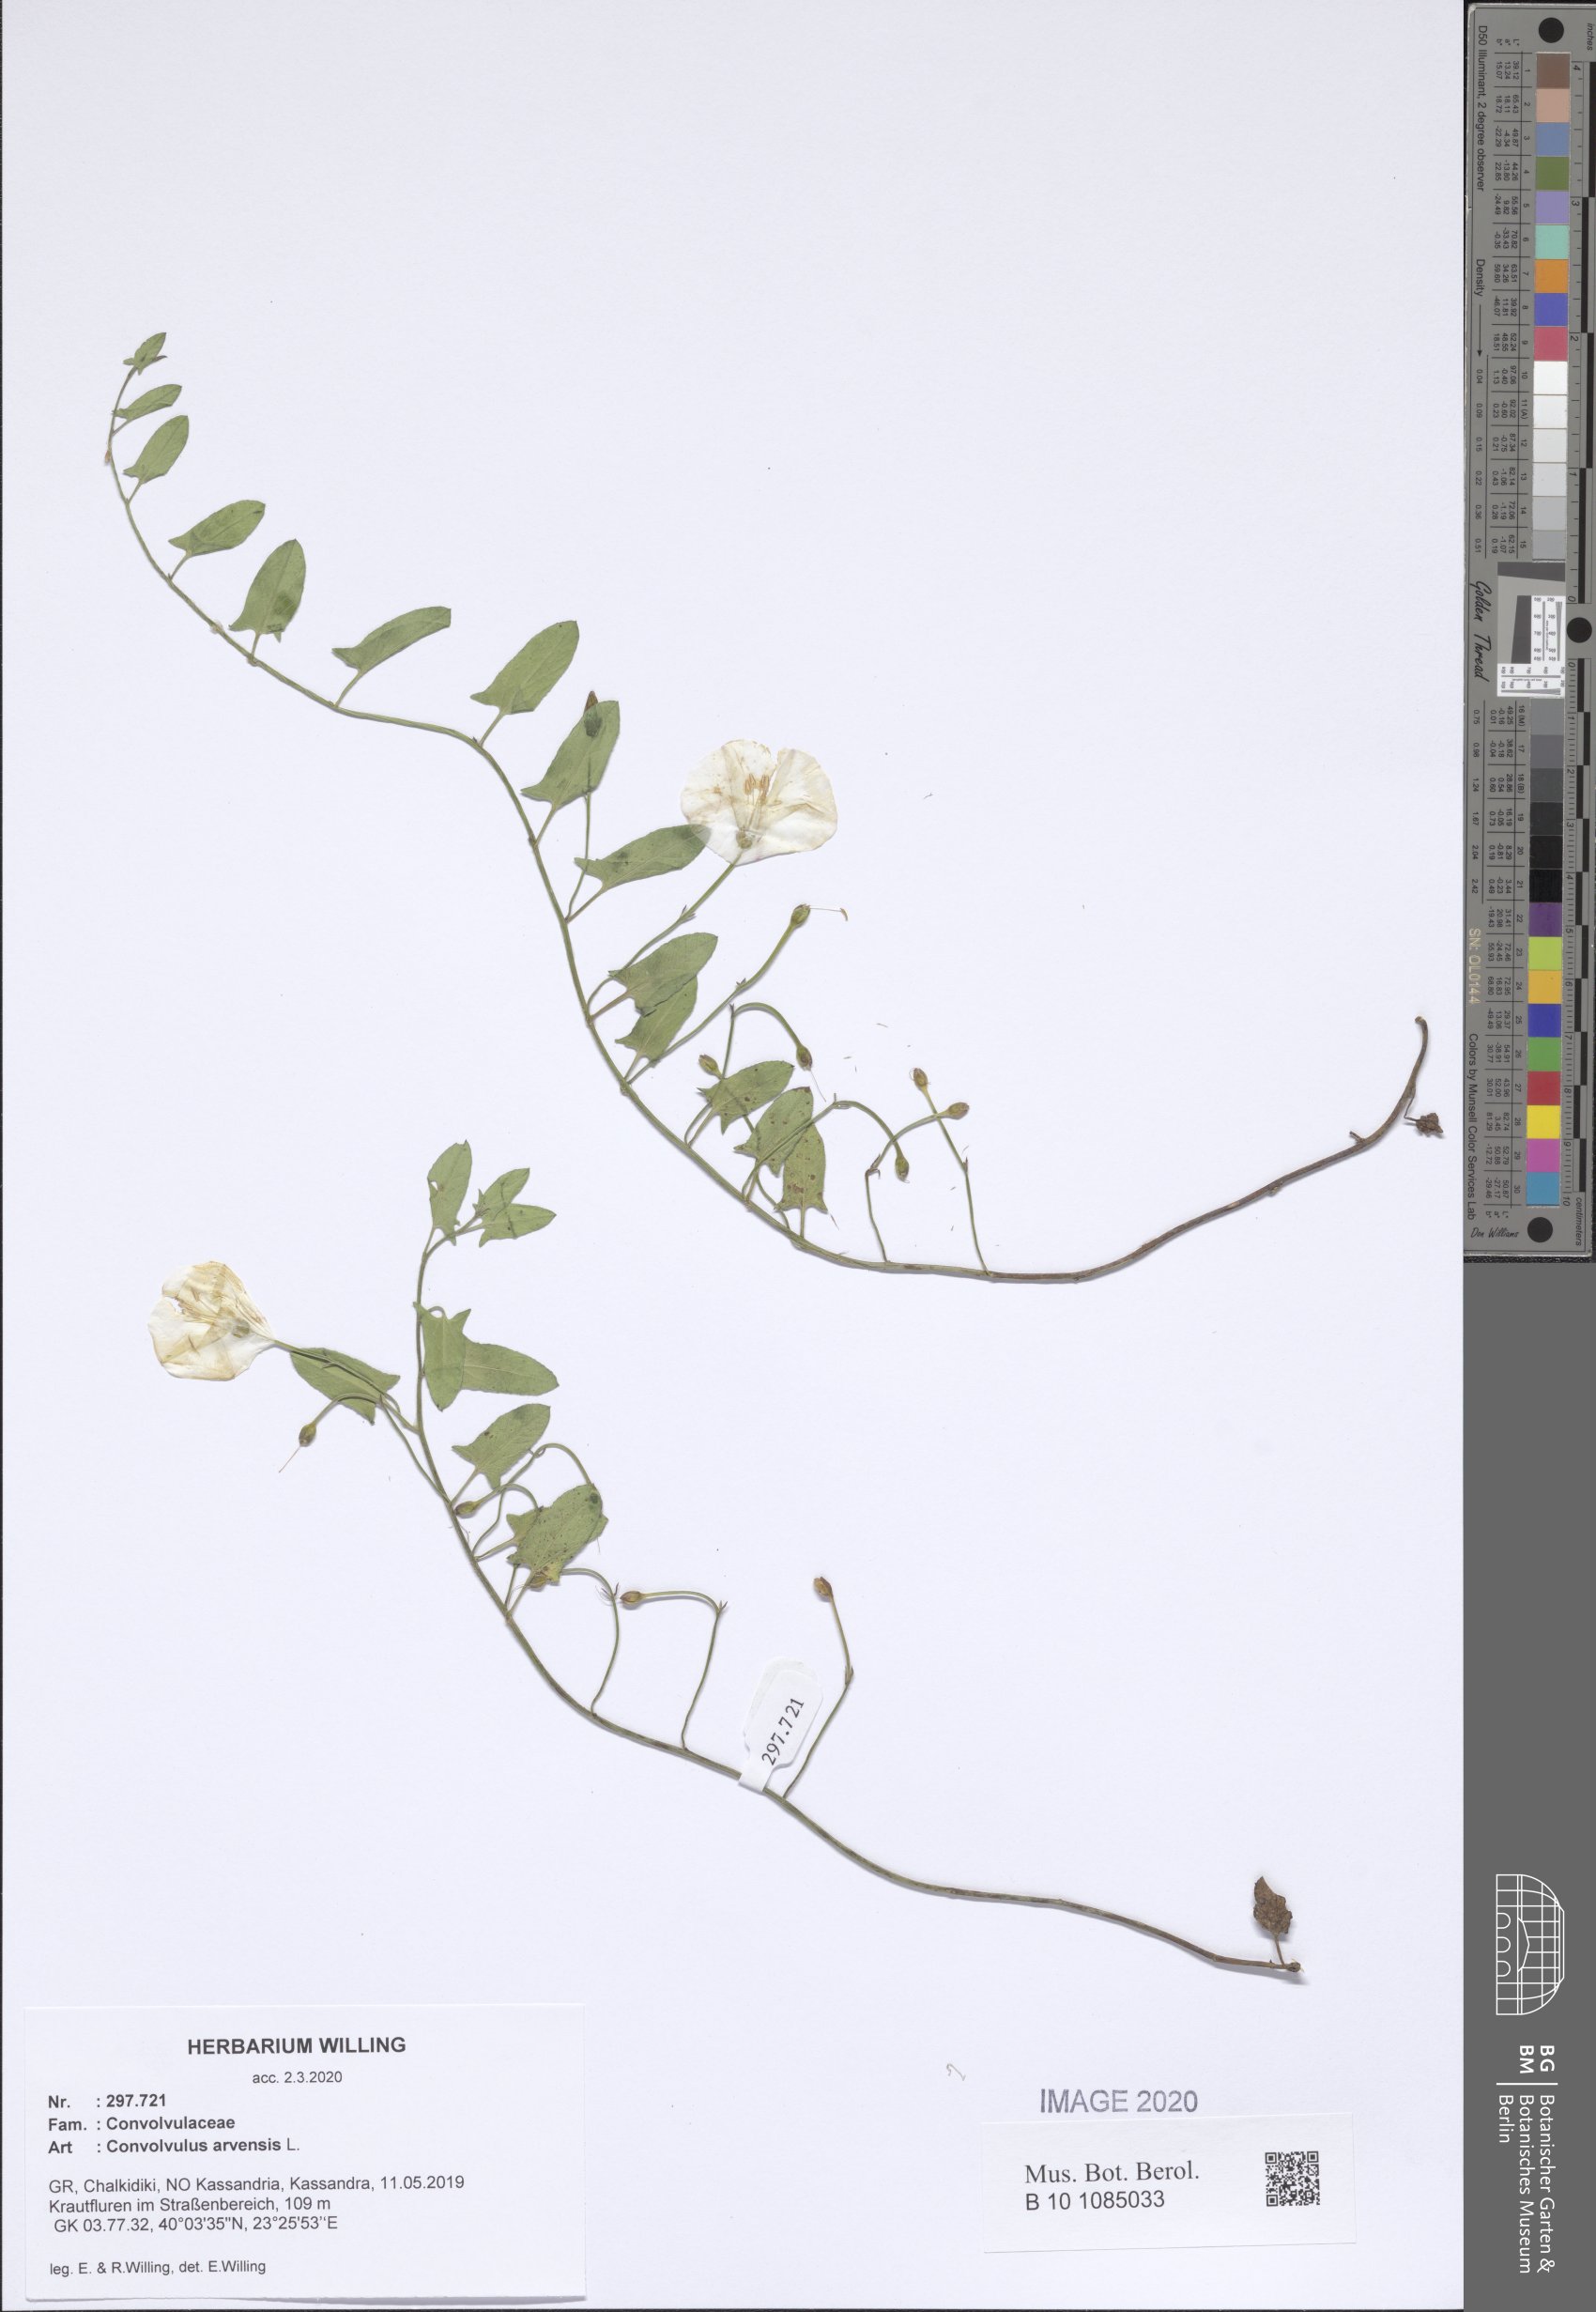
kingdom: Plantae
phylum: Tracheophyta
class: Magnoliopsida
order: Solanales
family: Convolvulaceae
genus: Convolvulus
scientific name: Convolvulus arvensis
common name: Field bindweed
